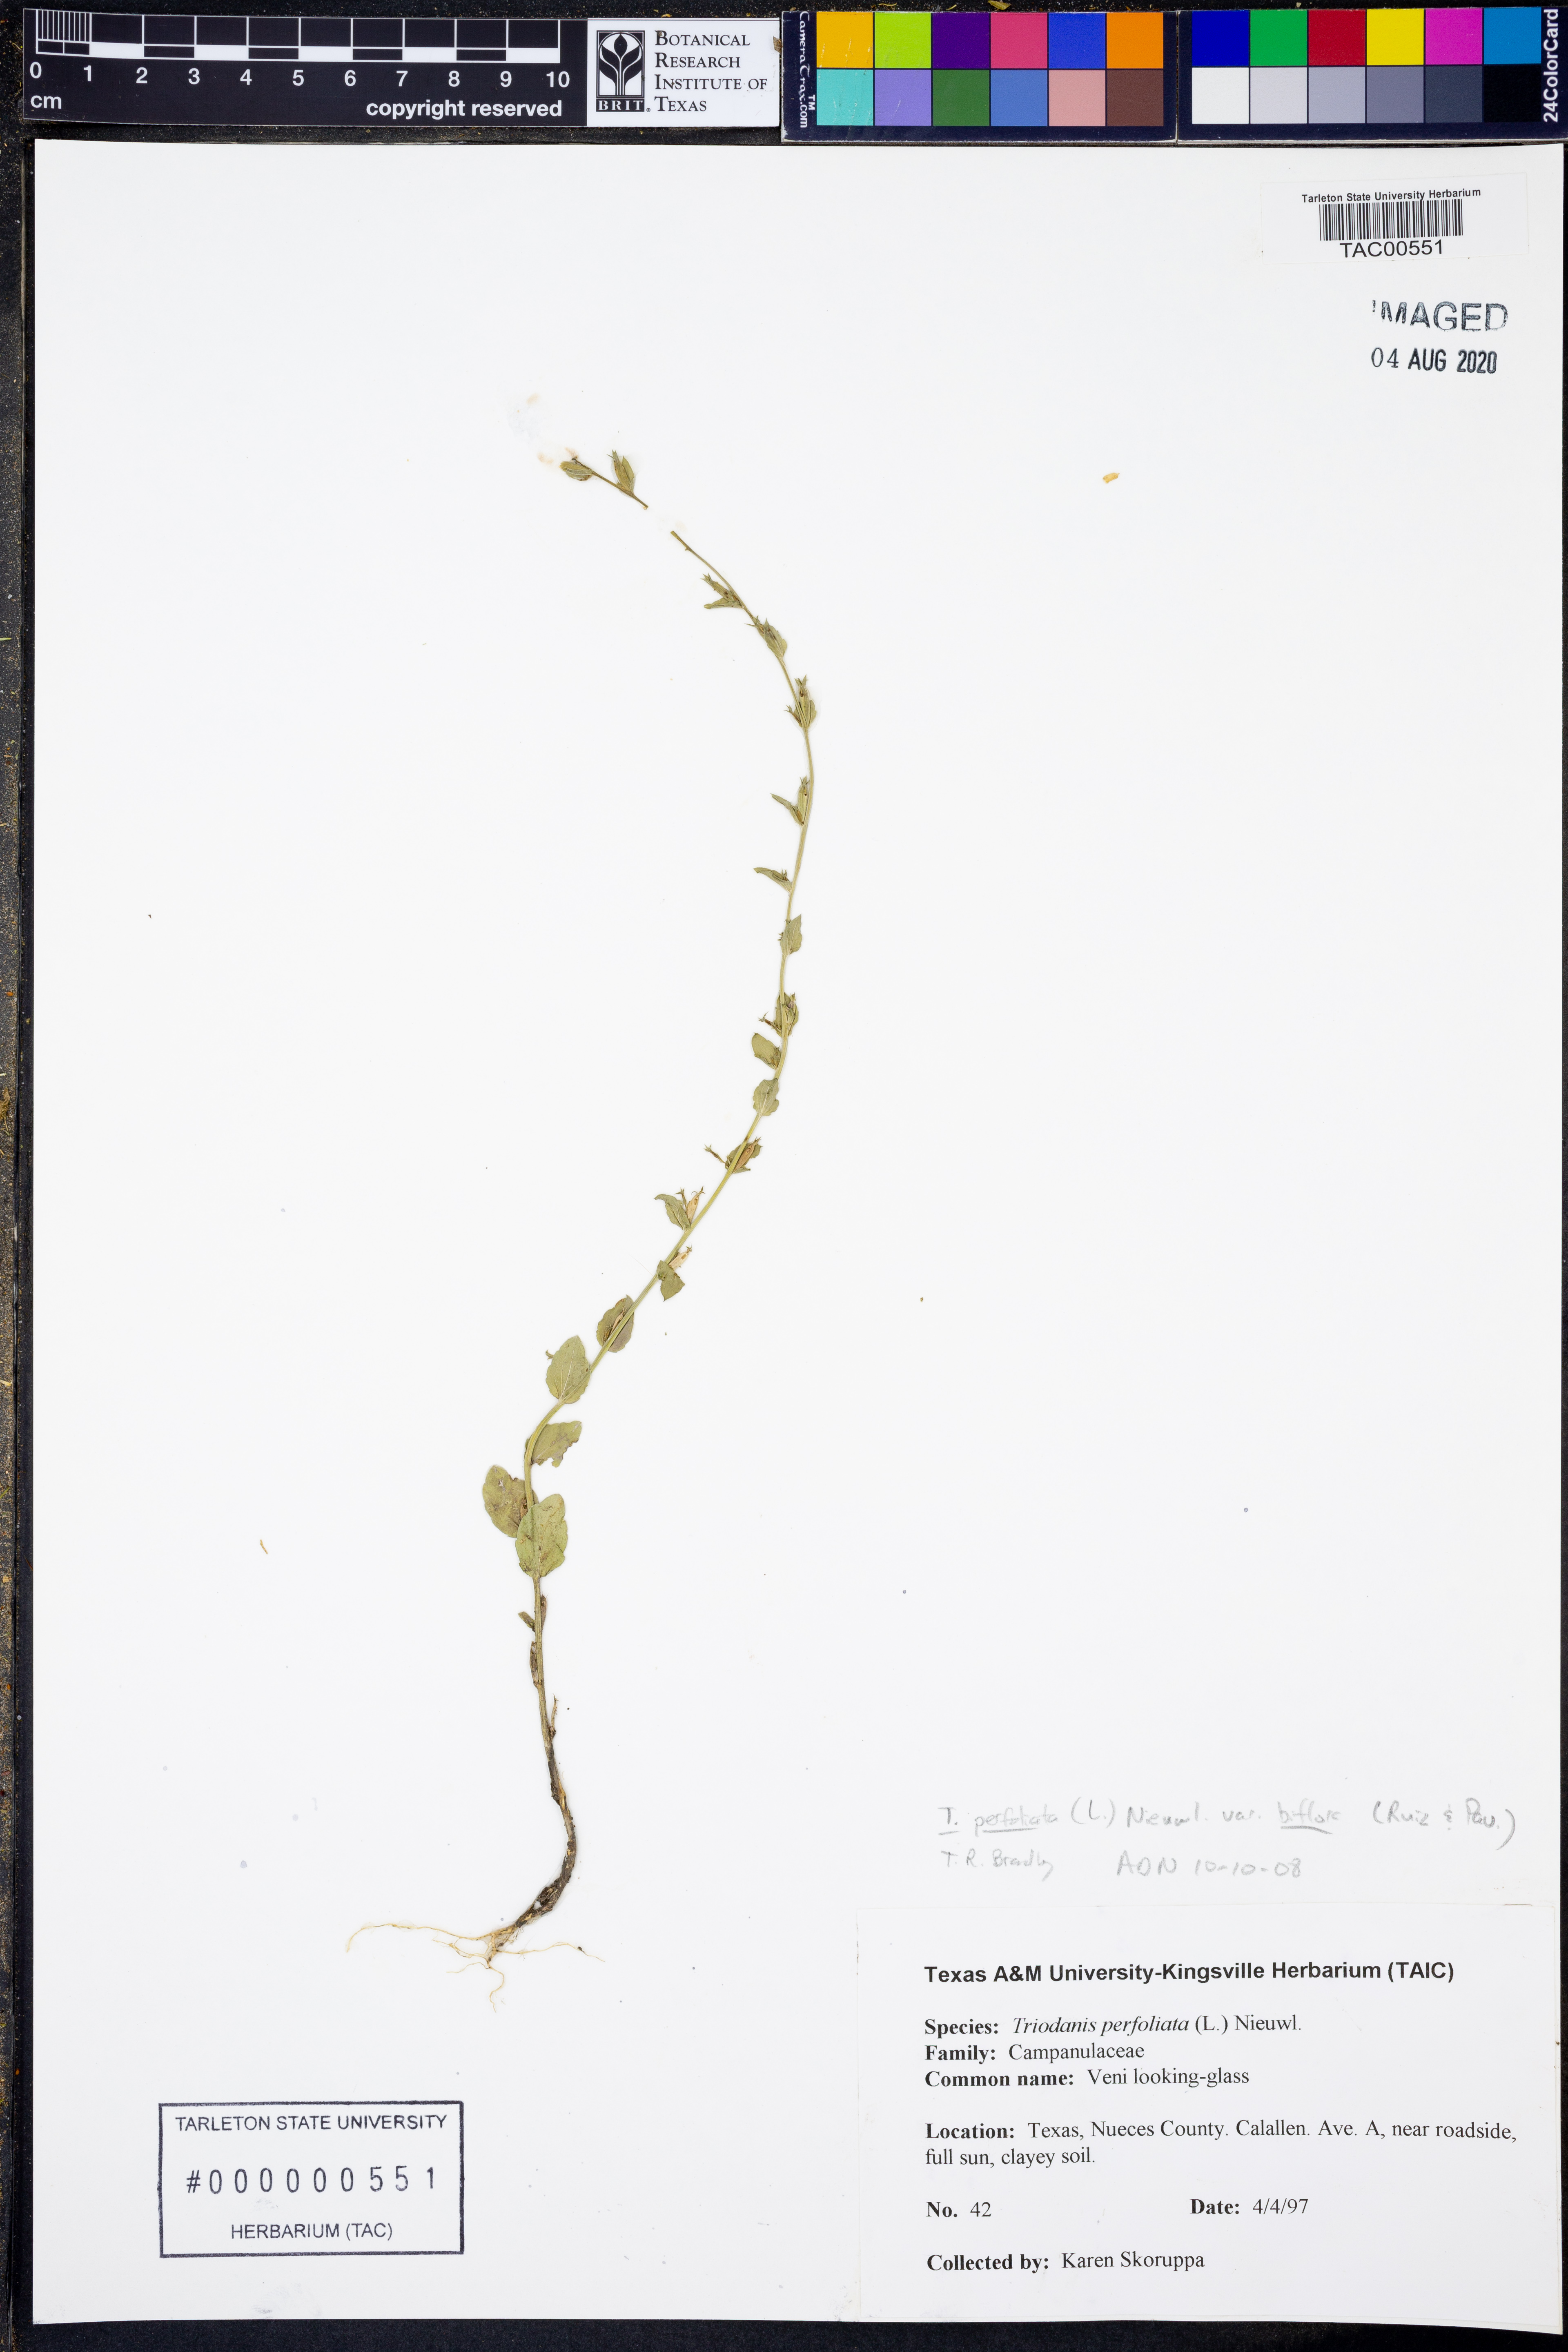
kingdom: Plantae
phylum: Tracheophyta
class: Magnoliopsida
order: Asterales
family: Campanulaceae
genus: Triodanis
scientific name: Triodanis perfoliata
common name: Clasping venus' looking-glass
